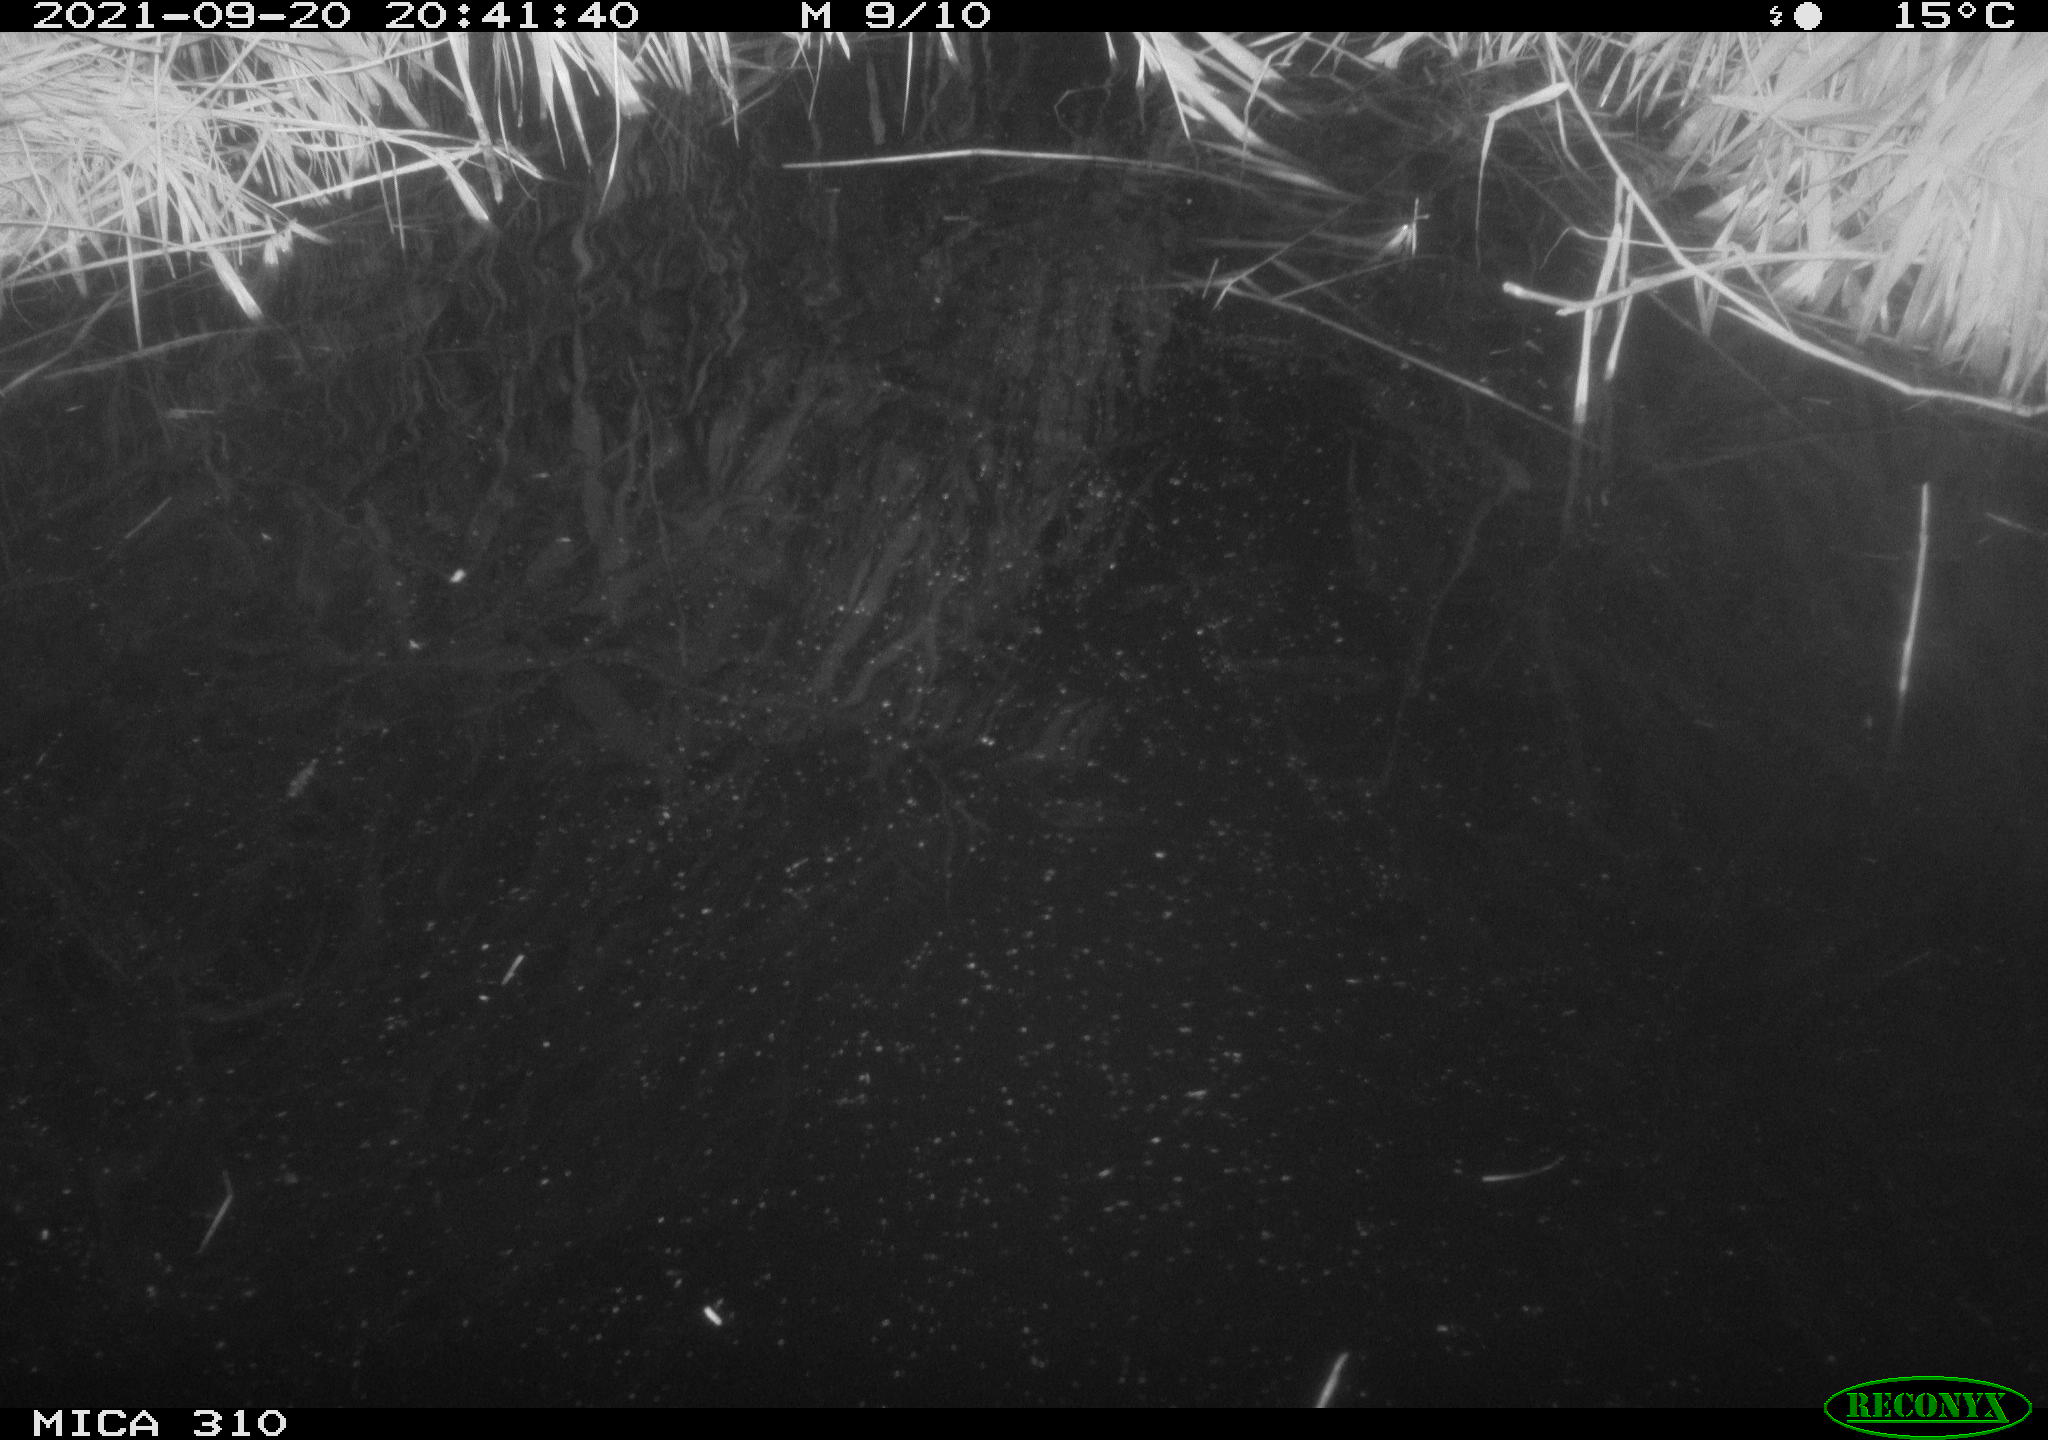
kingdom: Animalia
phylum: Chordata
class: Mammalia
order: Rodentia
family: Muridae
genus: Rattus
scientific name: Rattus norvegicus
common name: Brown rat
